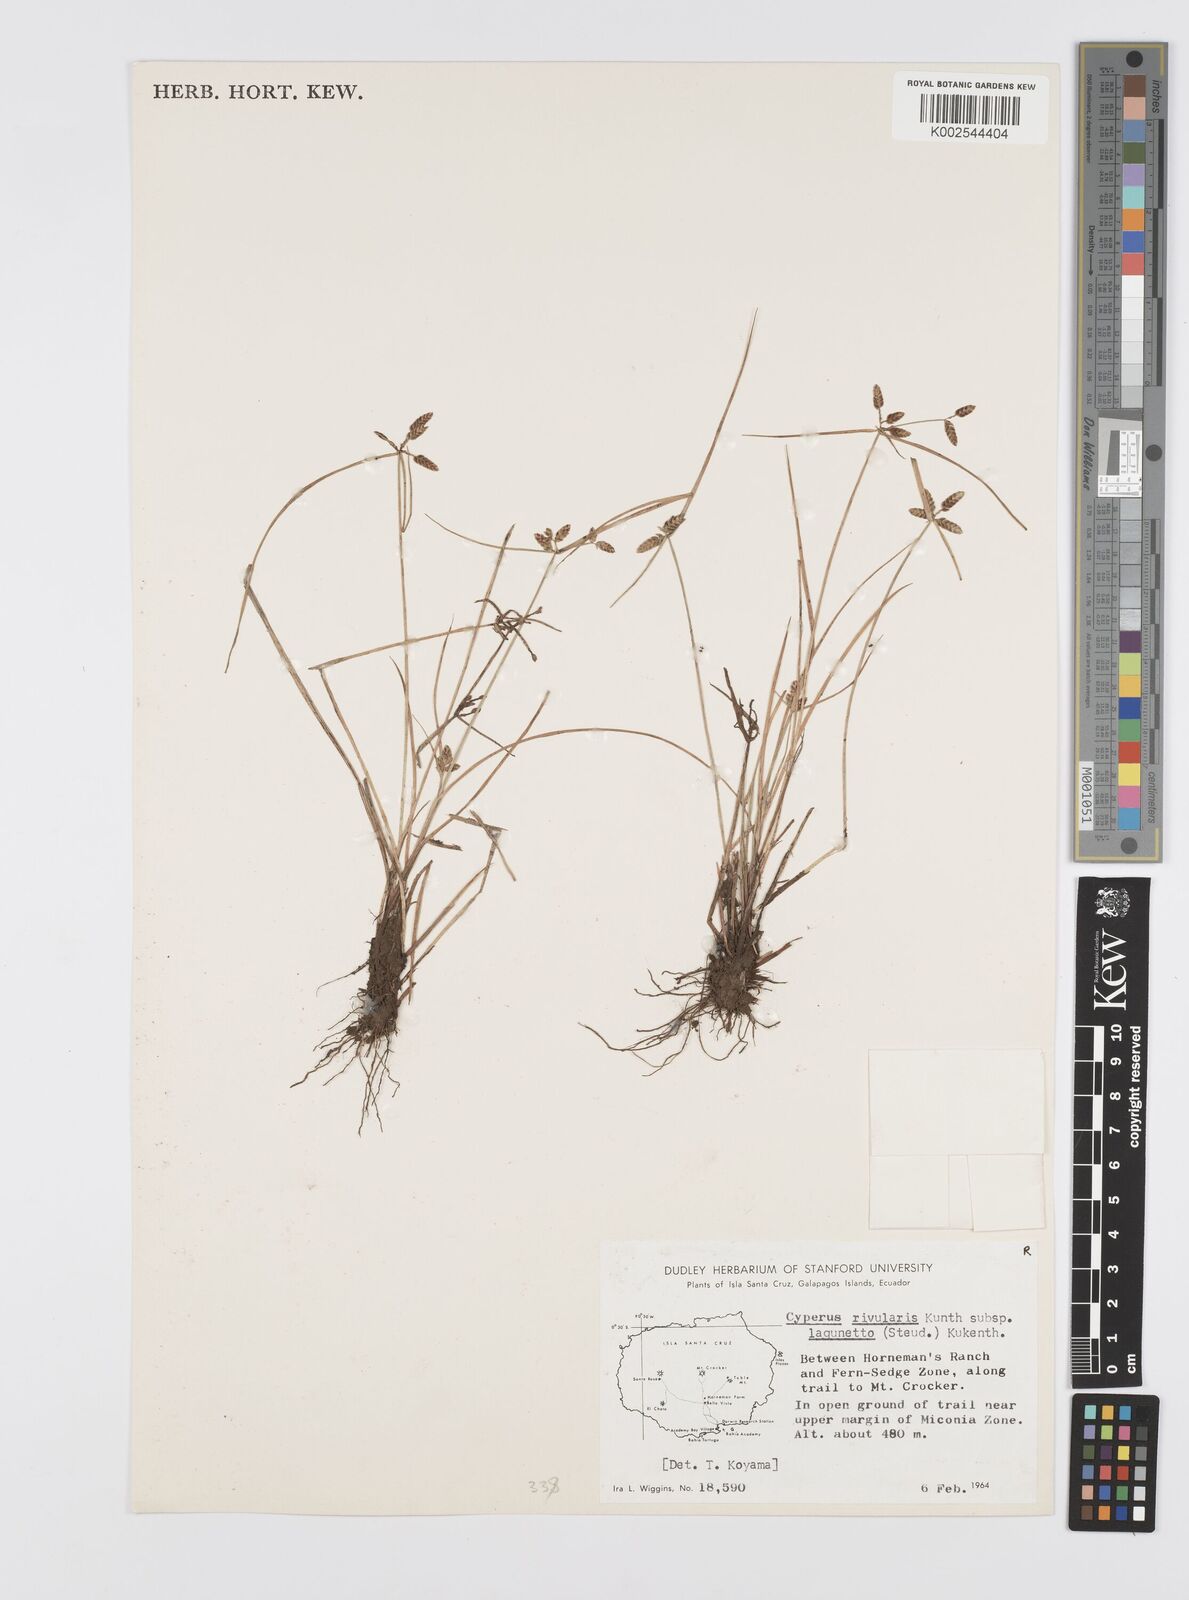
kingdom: Plantae
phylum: Tracheophyta
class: Liliopsida
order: Poales
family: Cyperaceae
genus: Cyperus
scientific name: Cyperus bipartitus
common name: Brook flatsedge
